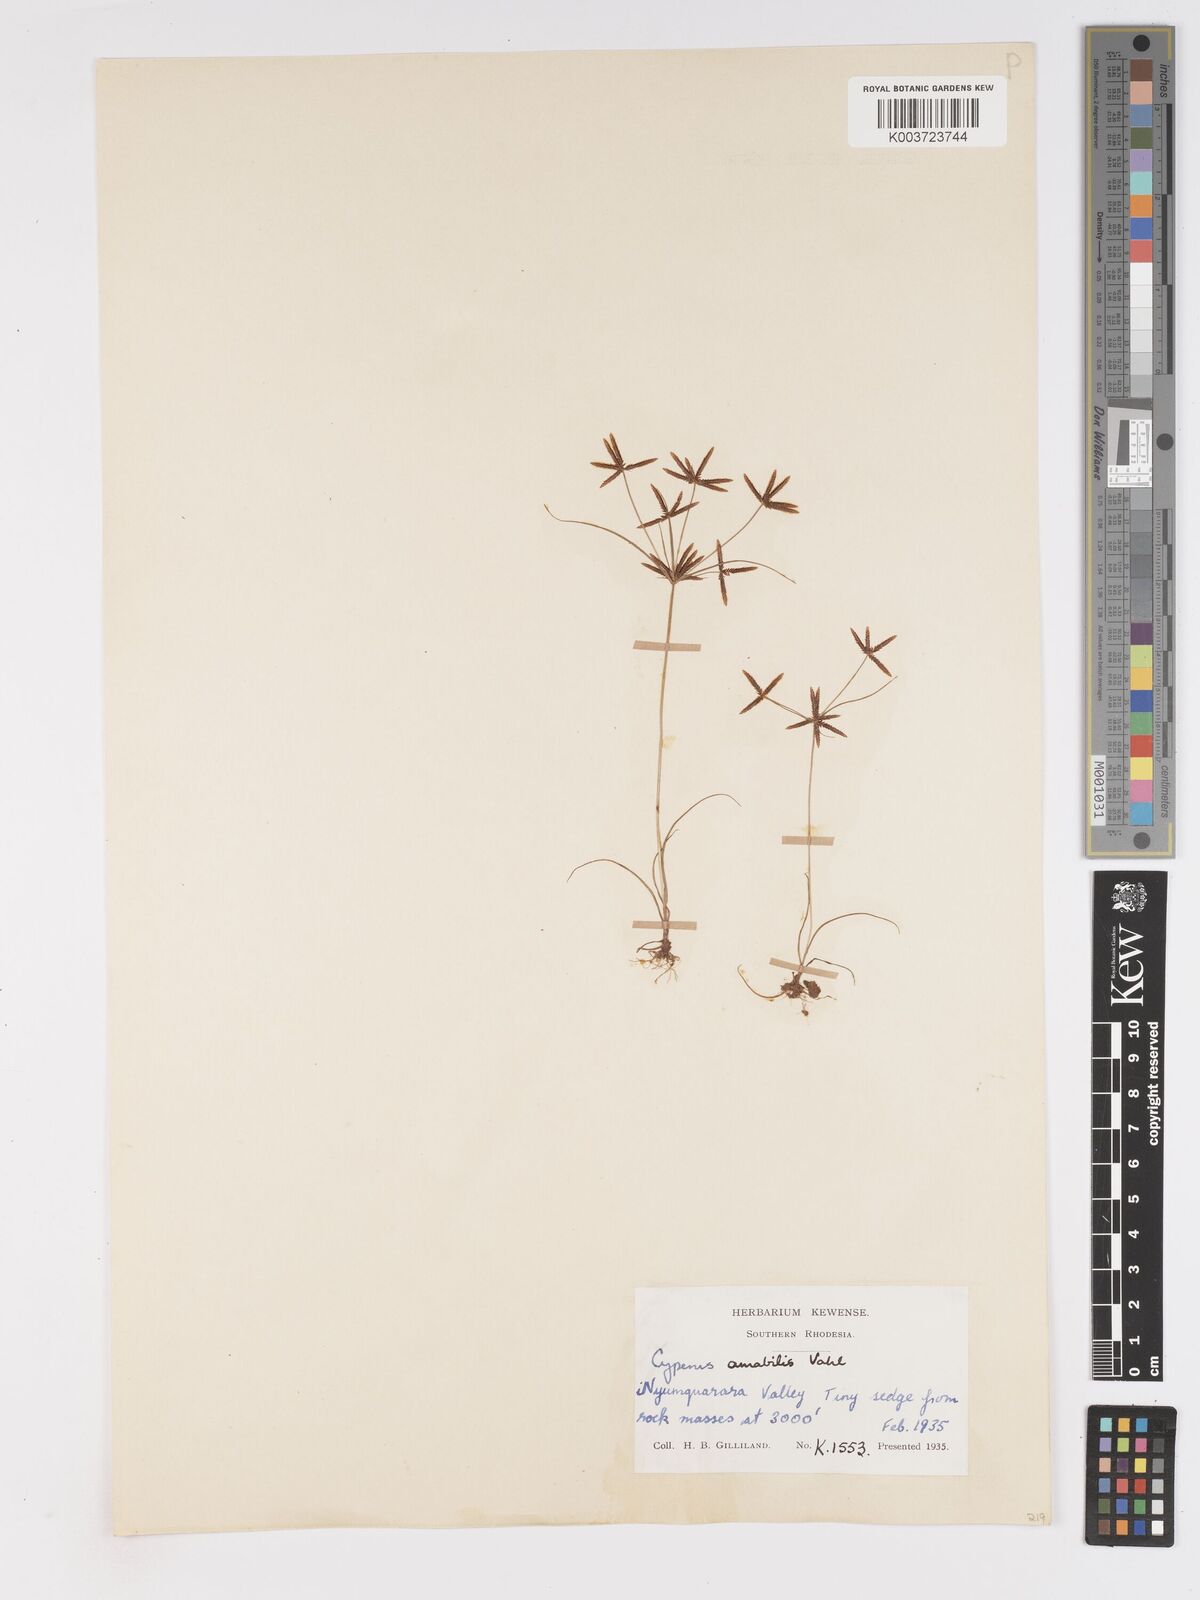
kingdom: Plantae
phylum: Tracheophyta
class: Liliopsida
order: Poales
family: Cyperaceae
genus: Cyperus
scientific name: Cyperus amabilis
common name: Foothill flat sedge
